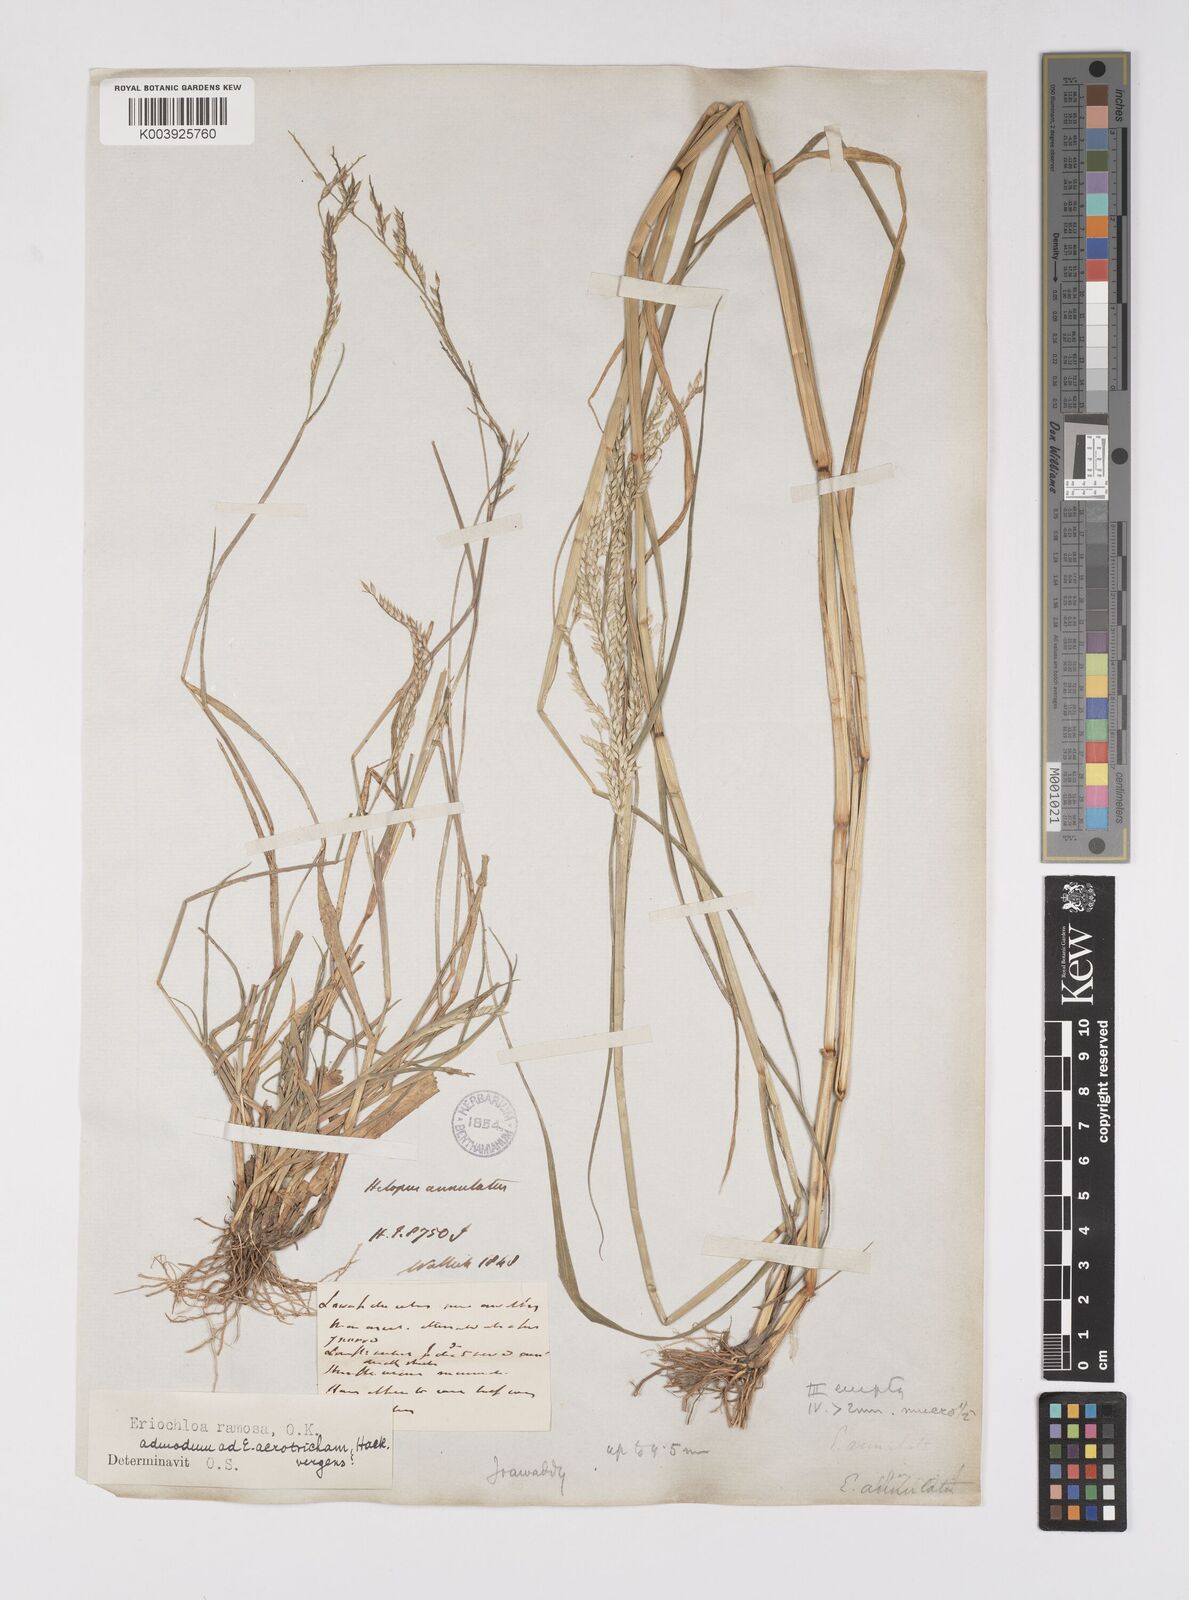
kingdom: Plantae
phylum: Tracheophyta
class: Liliopsida
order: Poales
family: Poaceae
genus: Eriochloa
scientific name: Eriochloa procera
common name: Spring grass
